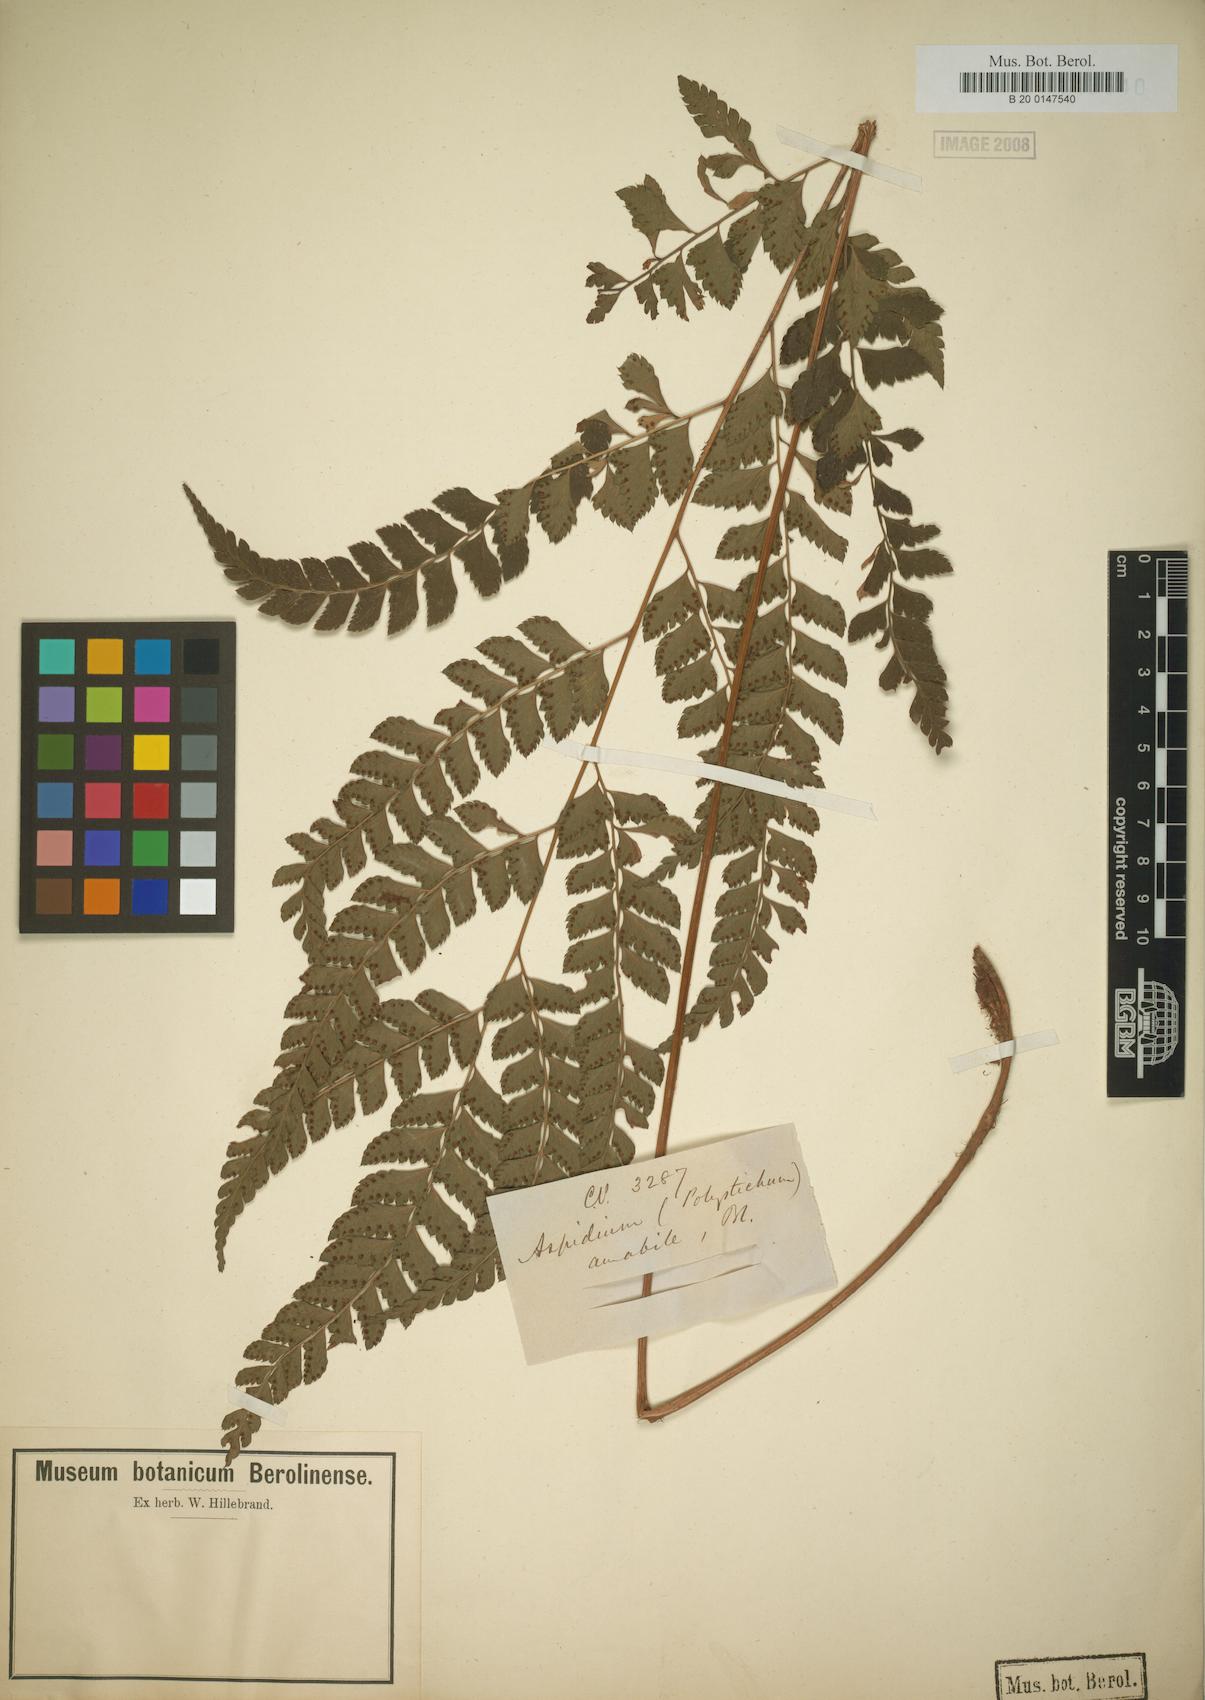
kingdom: Plantae
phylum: Tracheophyta
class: Polypodiopsida
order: Polypodiales
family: Dryopteridaceae
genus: Arachniodes
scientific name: Arachniodes amabilis
